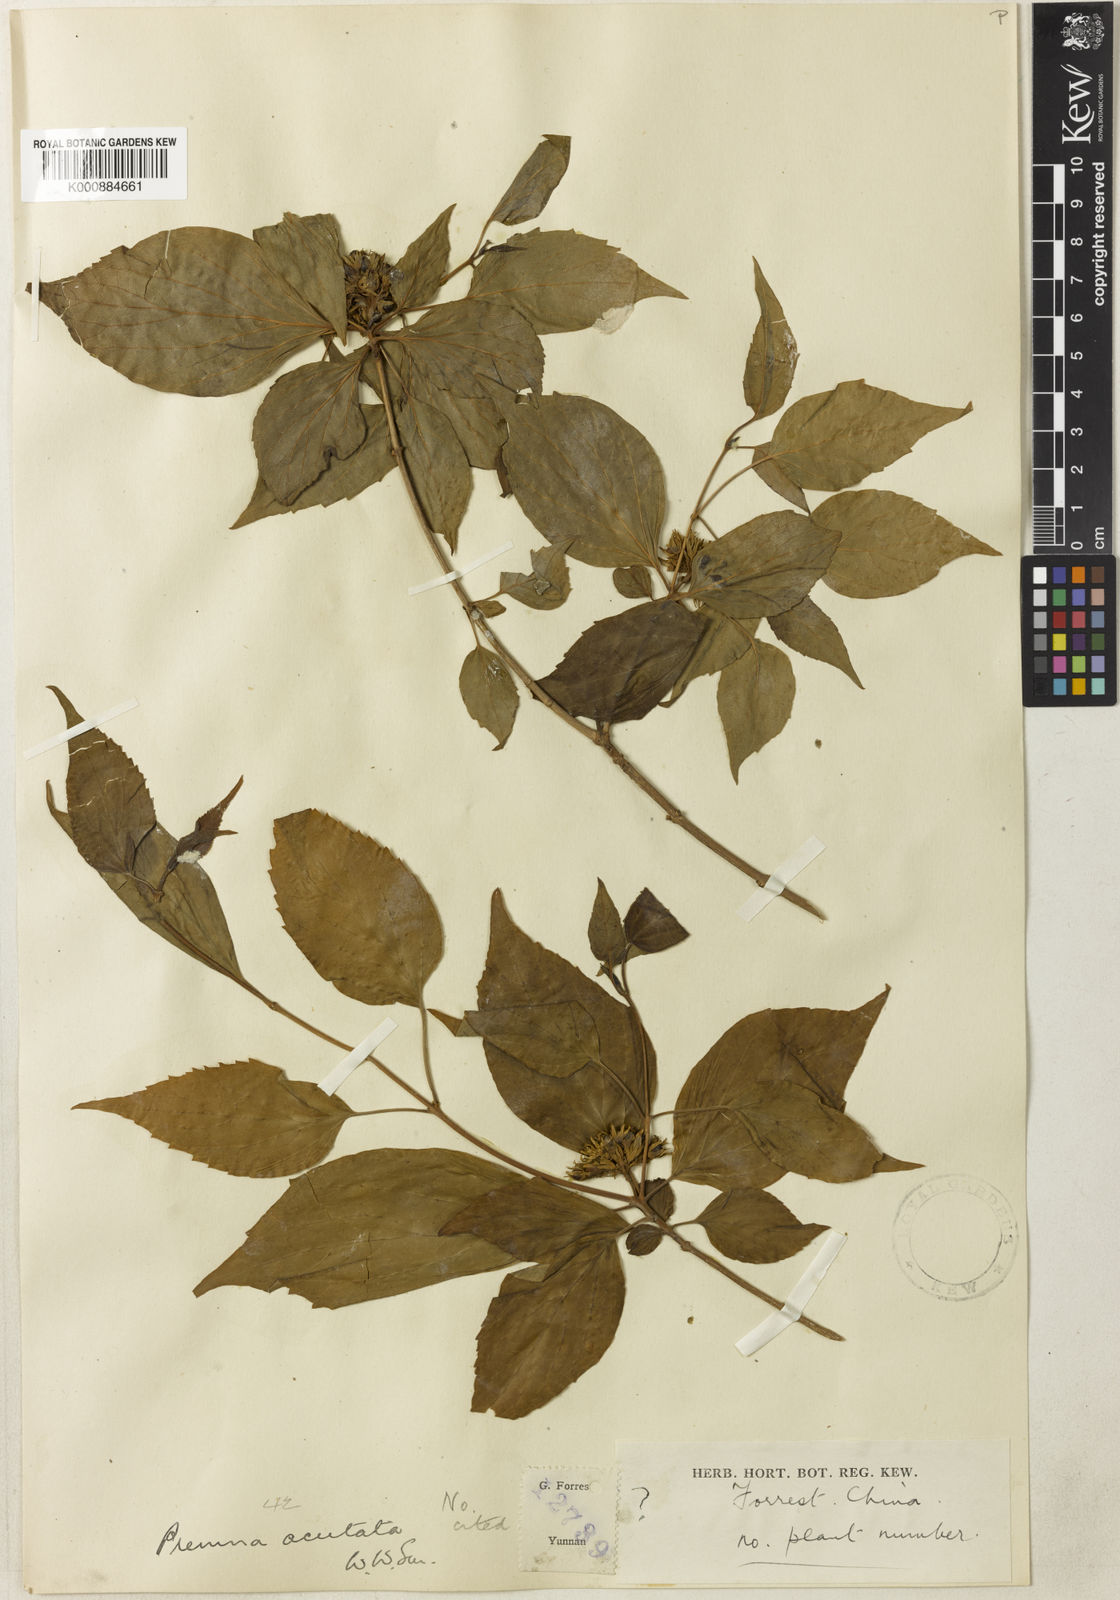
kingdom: Plantae
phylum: Tracheophyta
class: Magnoliopsida
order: Lamiales
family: Lamiaceae
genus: Premna
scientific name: Premna acutata
